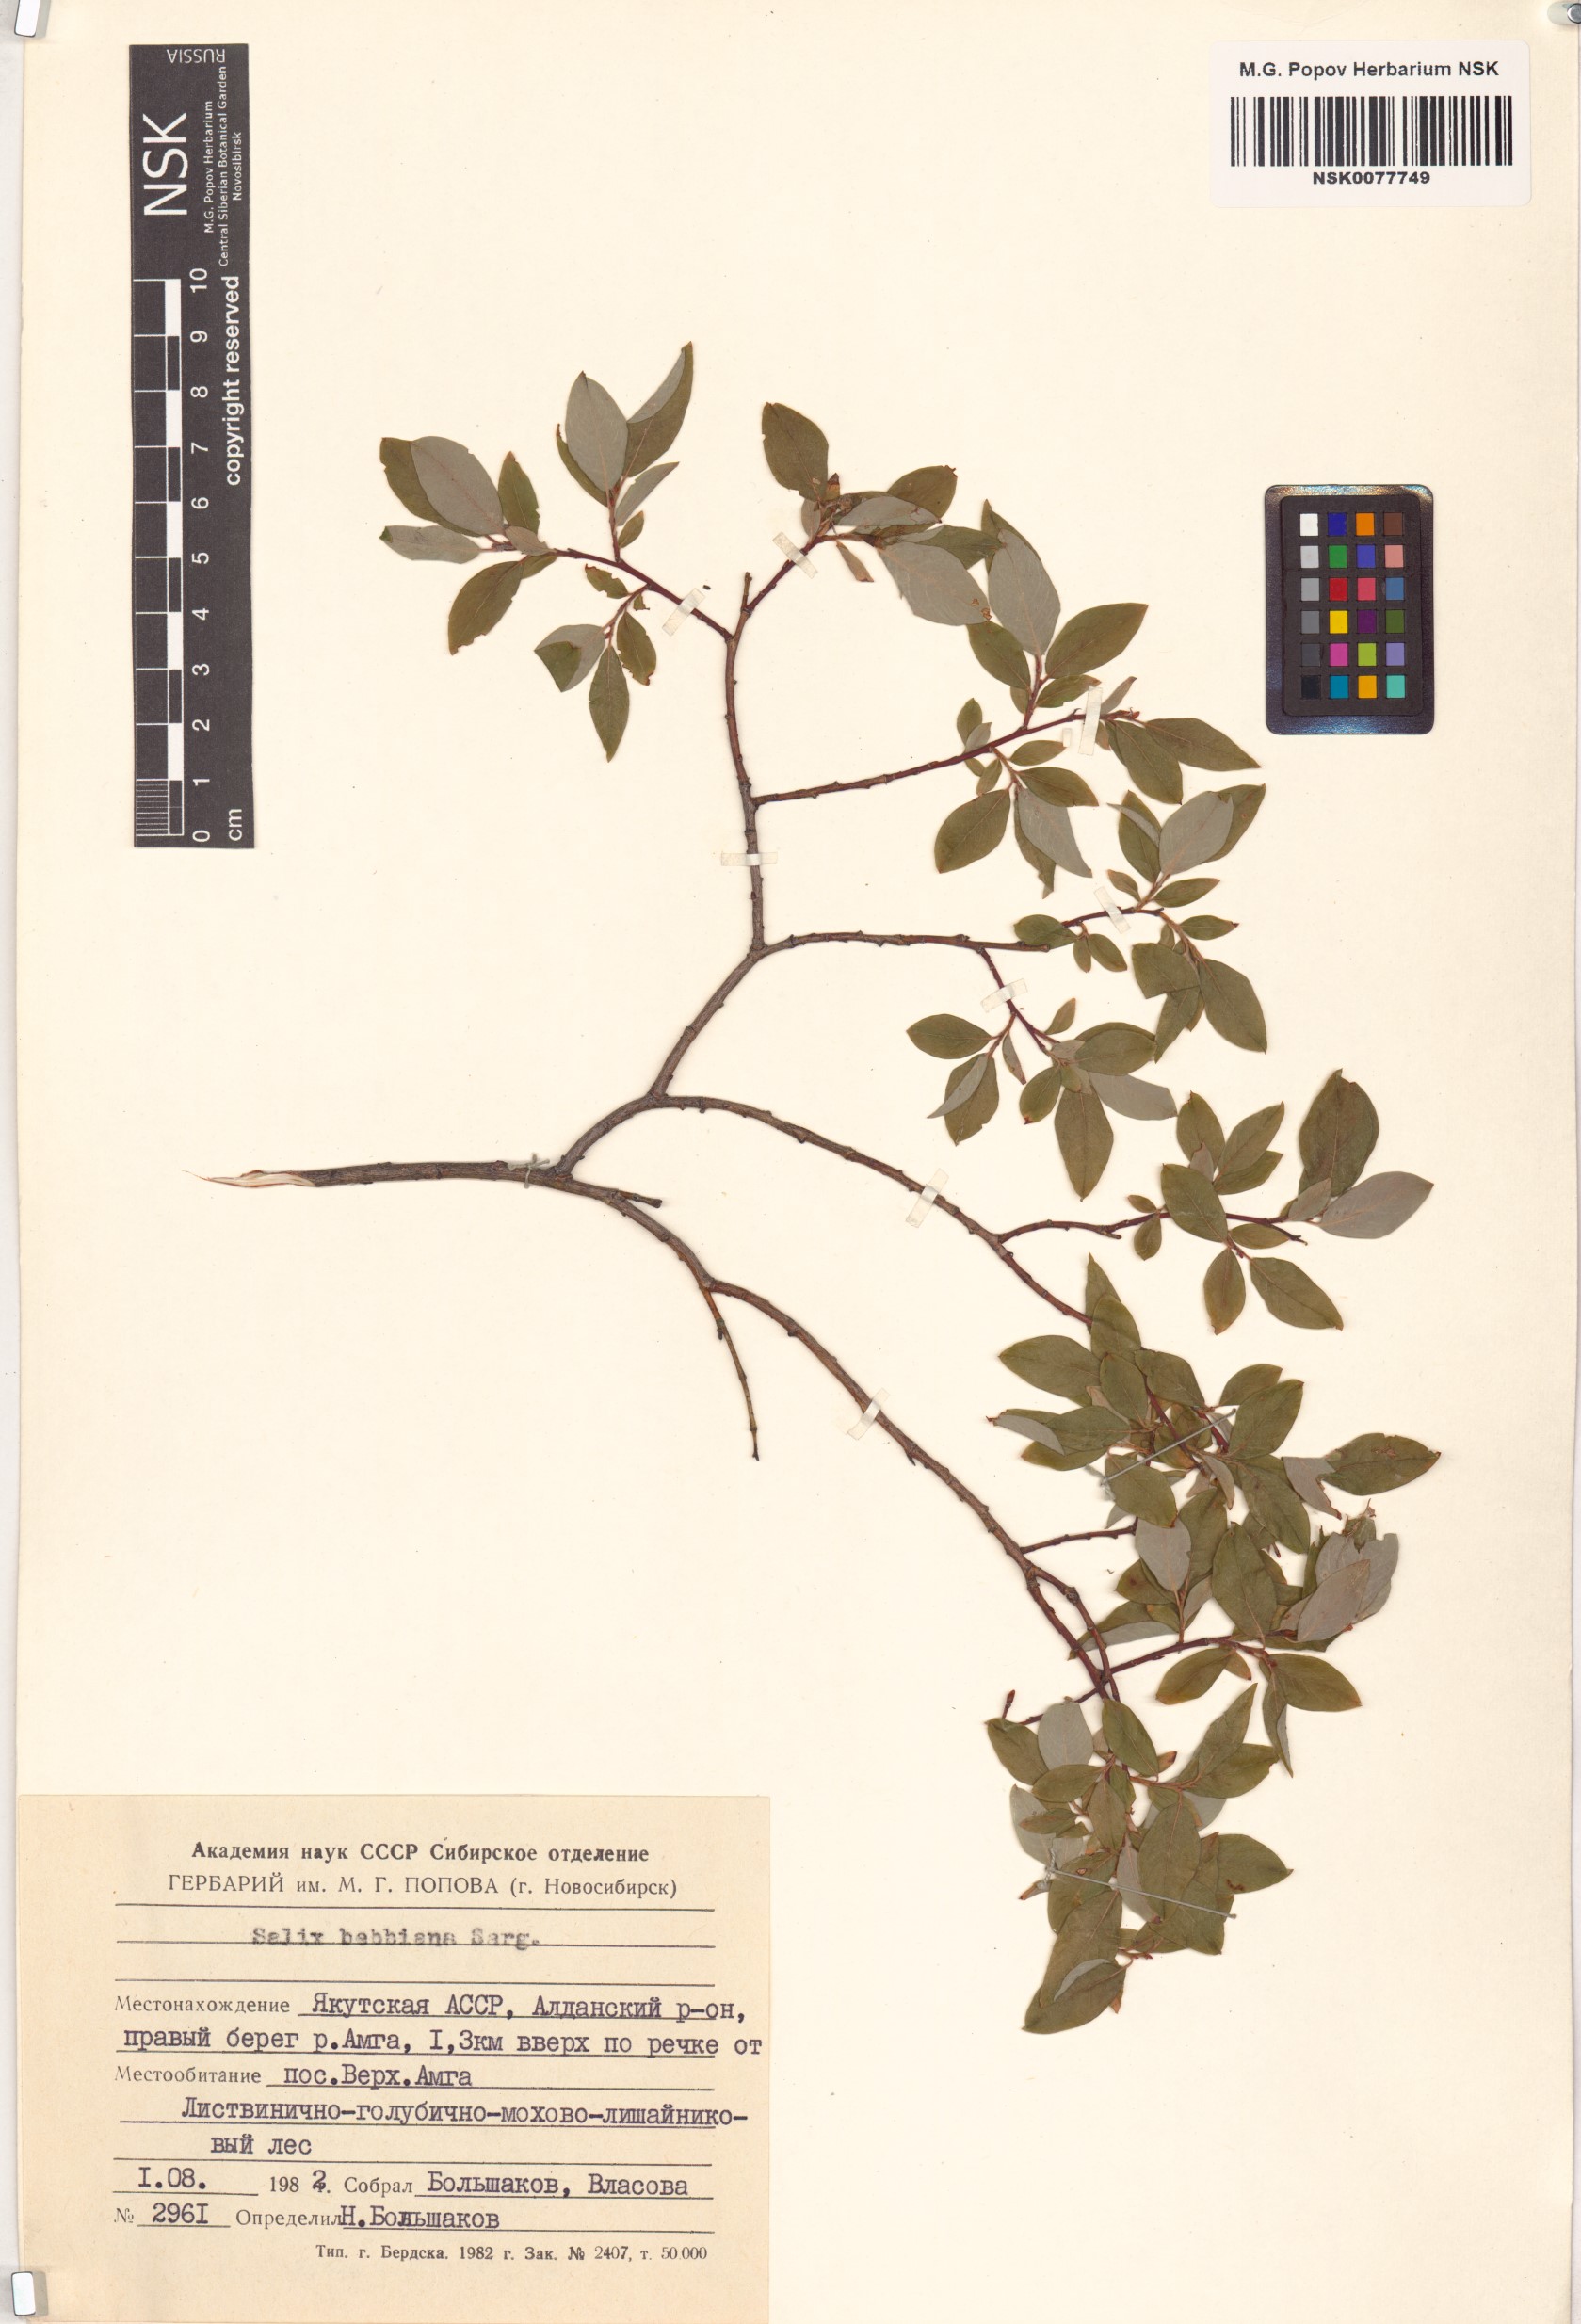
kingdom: Plantae
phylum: Tracheophyta
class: Magnoliopsida
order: Malpighiales
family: Salicaceae
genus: Salix
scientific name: Salix bebbiana
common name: Bebb's willow
